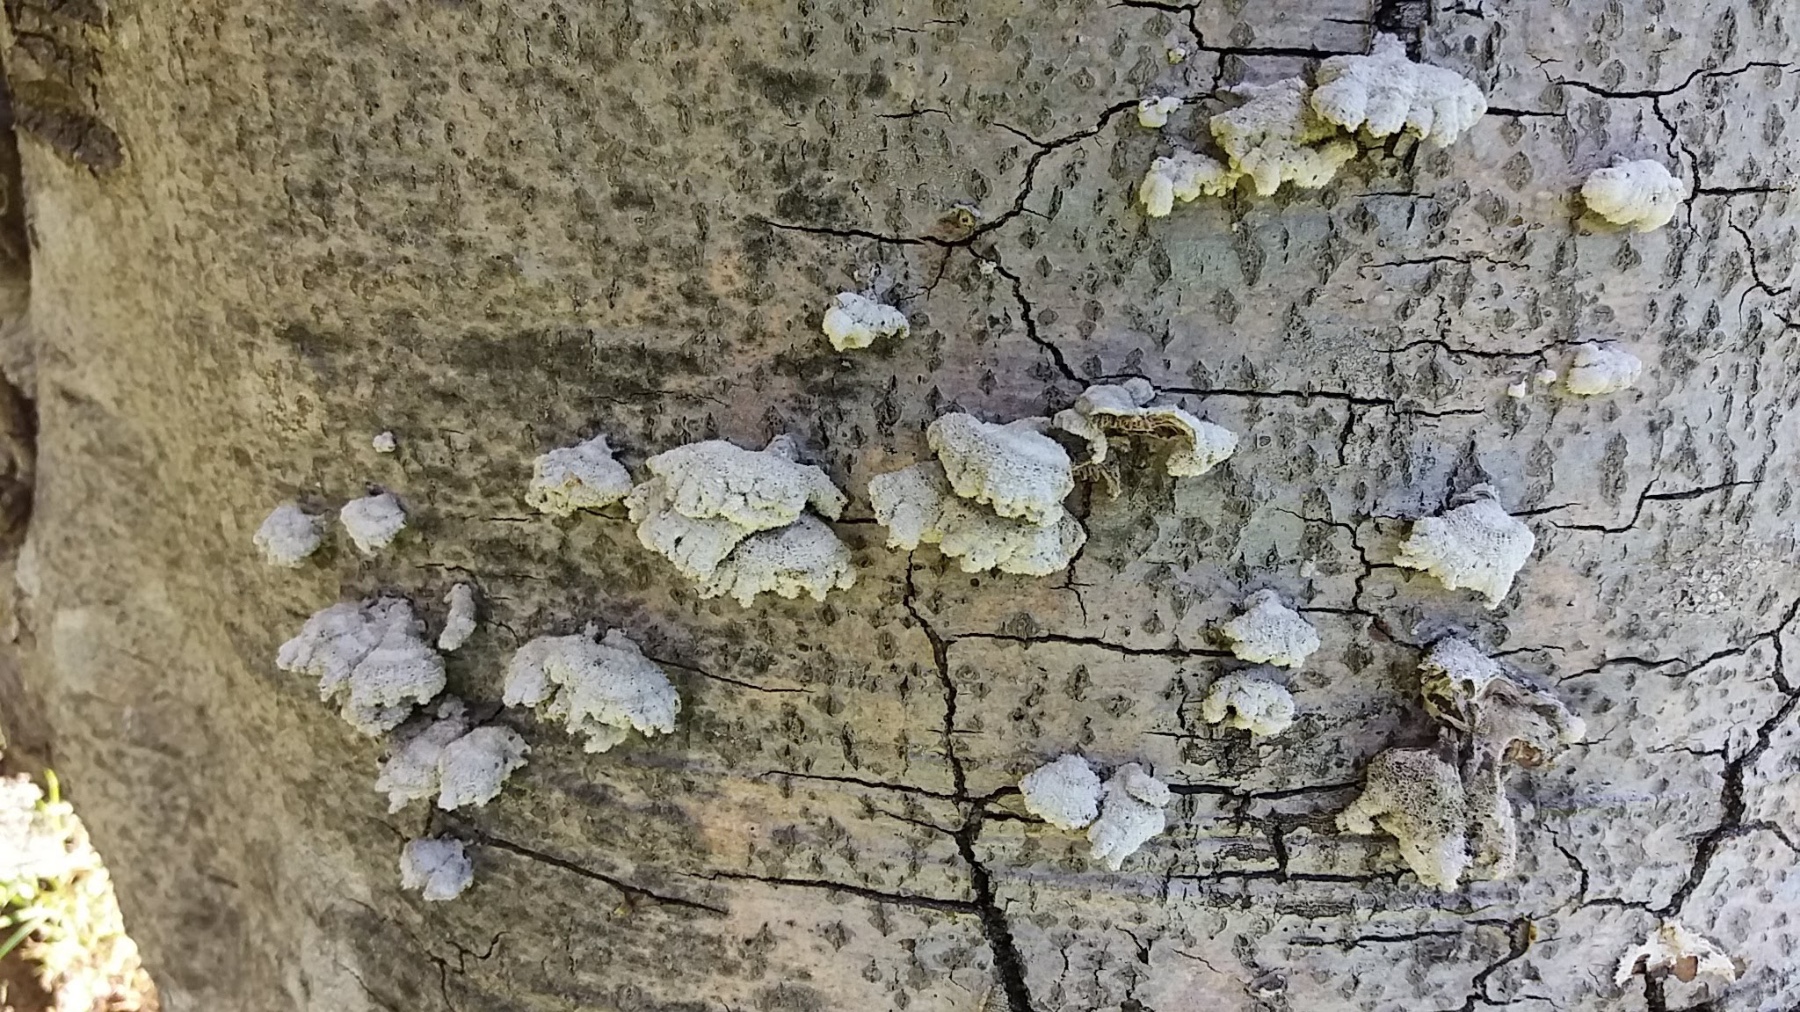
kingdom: Fungi
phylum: Basidiomycota
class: Agaricomycetes
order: Agaricales
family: Schizophyllaceae
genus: Schizophyllum
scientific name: Schizophyllum commune
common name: kløvblad
